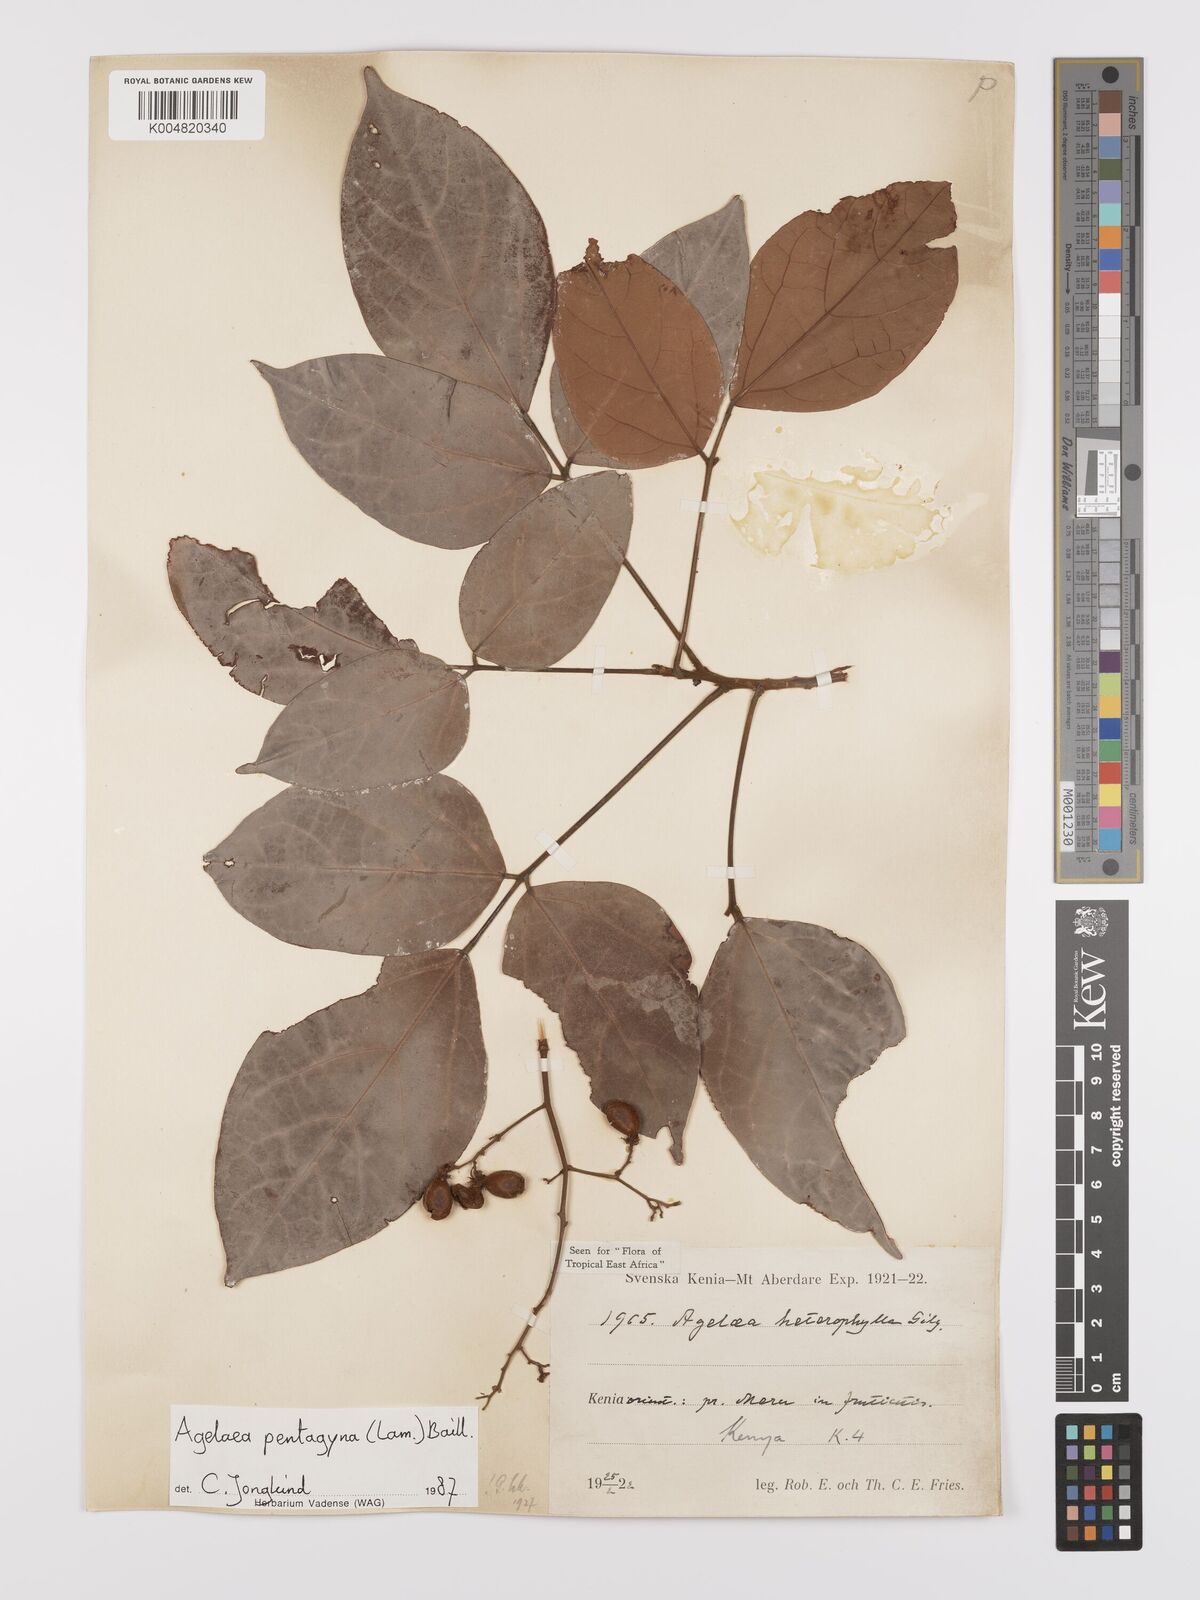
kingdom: Plantae
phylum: Tracheophyta
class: Magnoliopsida
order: Oxalidales
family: Connaraceae
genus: Agelaea
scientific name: Agelaea pentagyna
